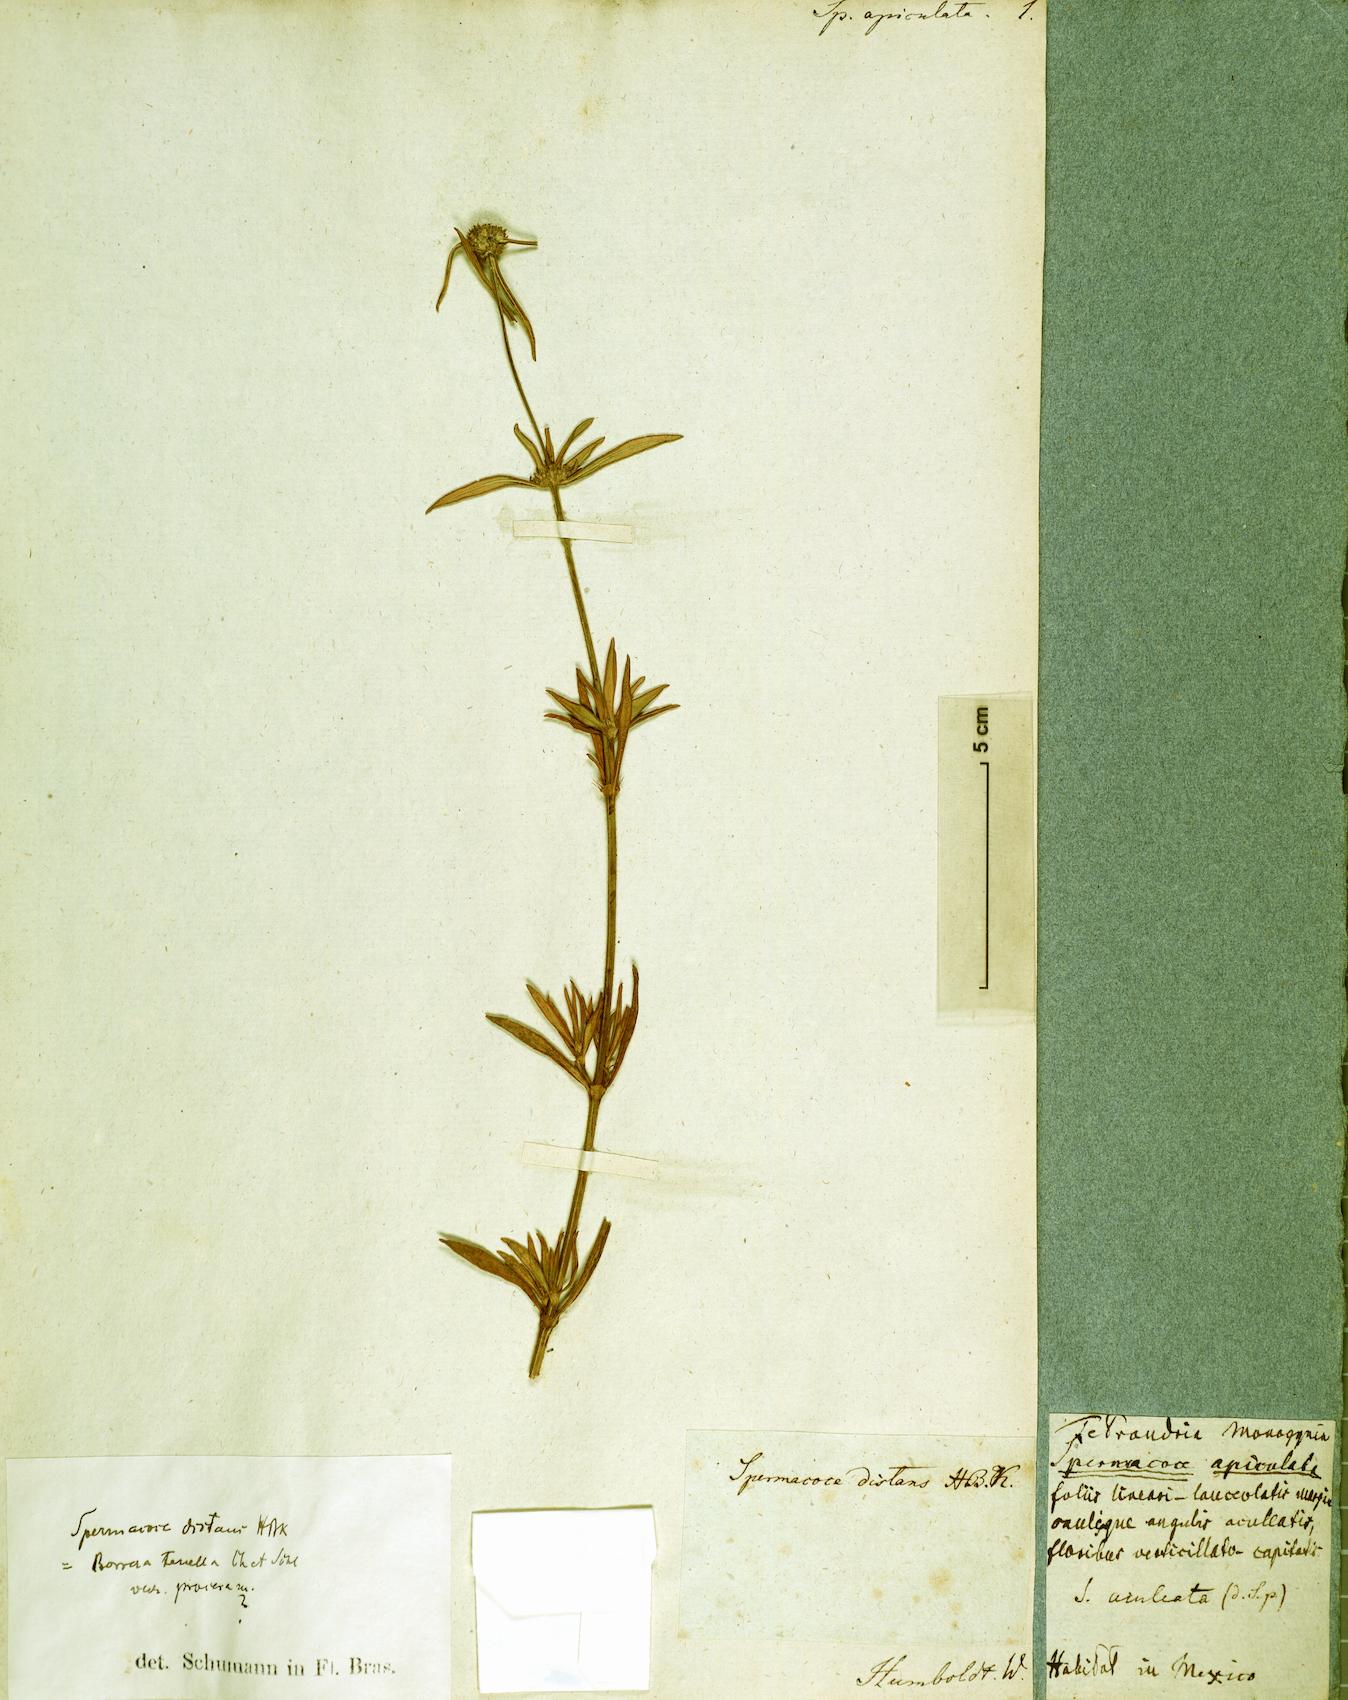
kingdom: Plantae
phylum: Tracheophyta
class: Magnoliopsida
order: Gentianales
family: Rubiaceae
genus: Hexasepalum
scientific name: Hexasepalum apiculatum
